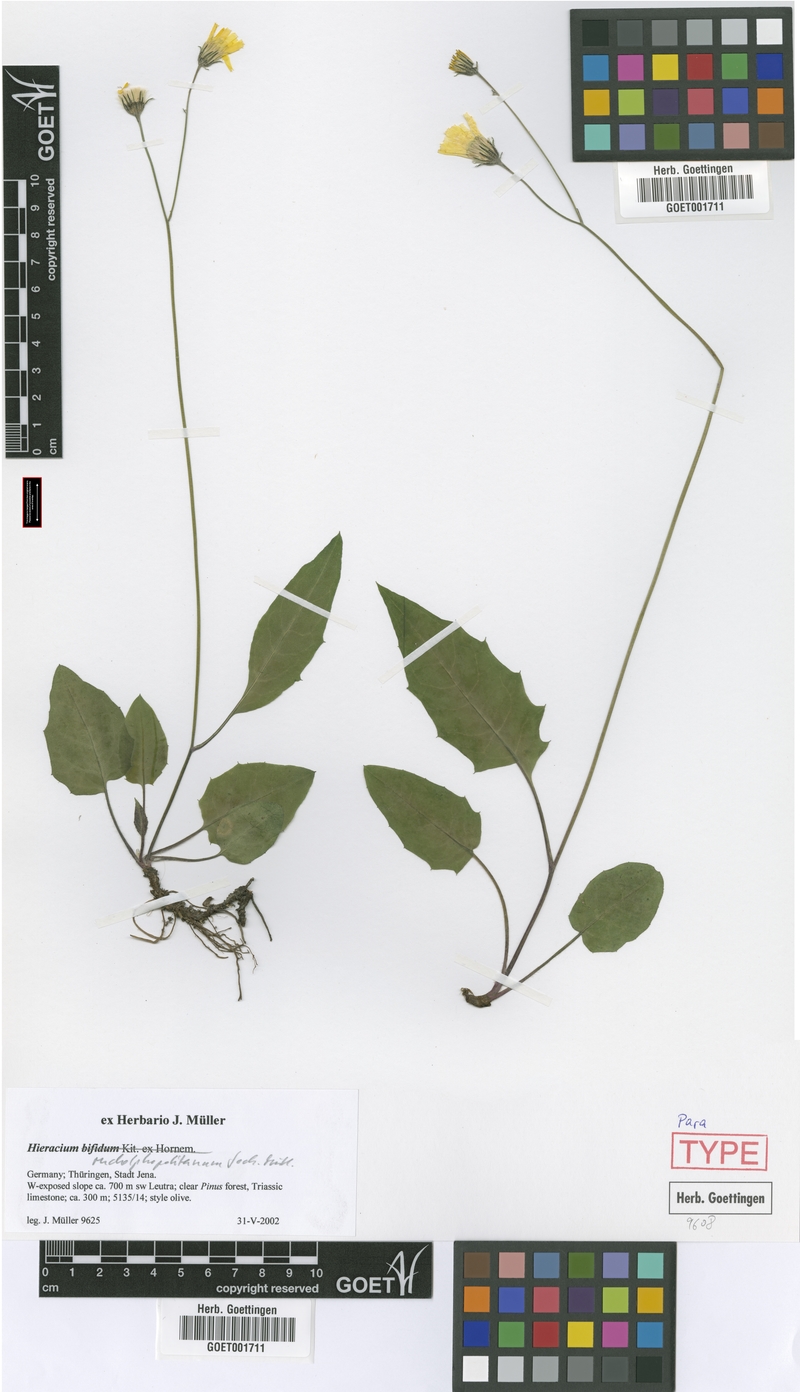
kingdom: Plantae
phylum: Tracheophyta
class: Magnoliopsida
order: Asterales
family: Asteraceae
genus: Hieracium
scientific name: Hieracium hypochoeroides
